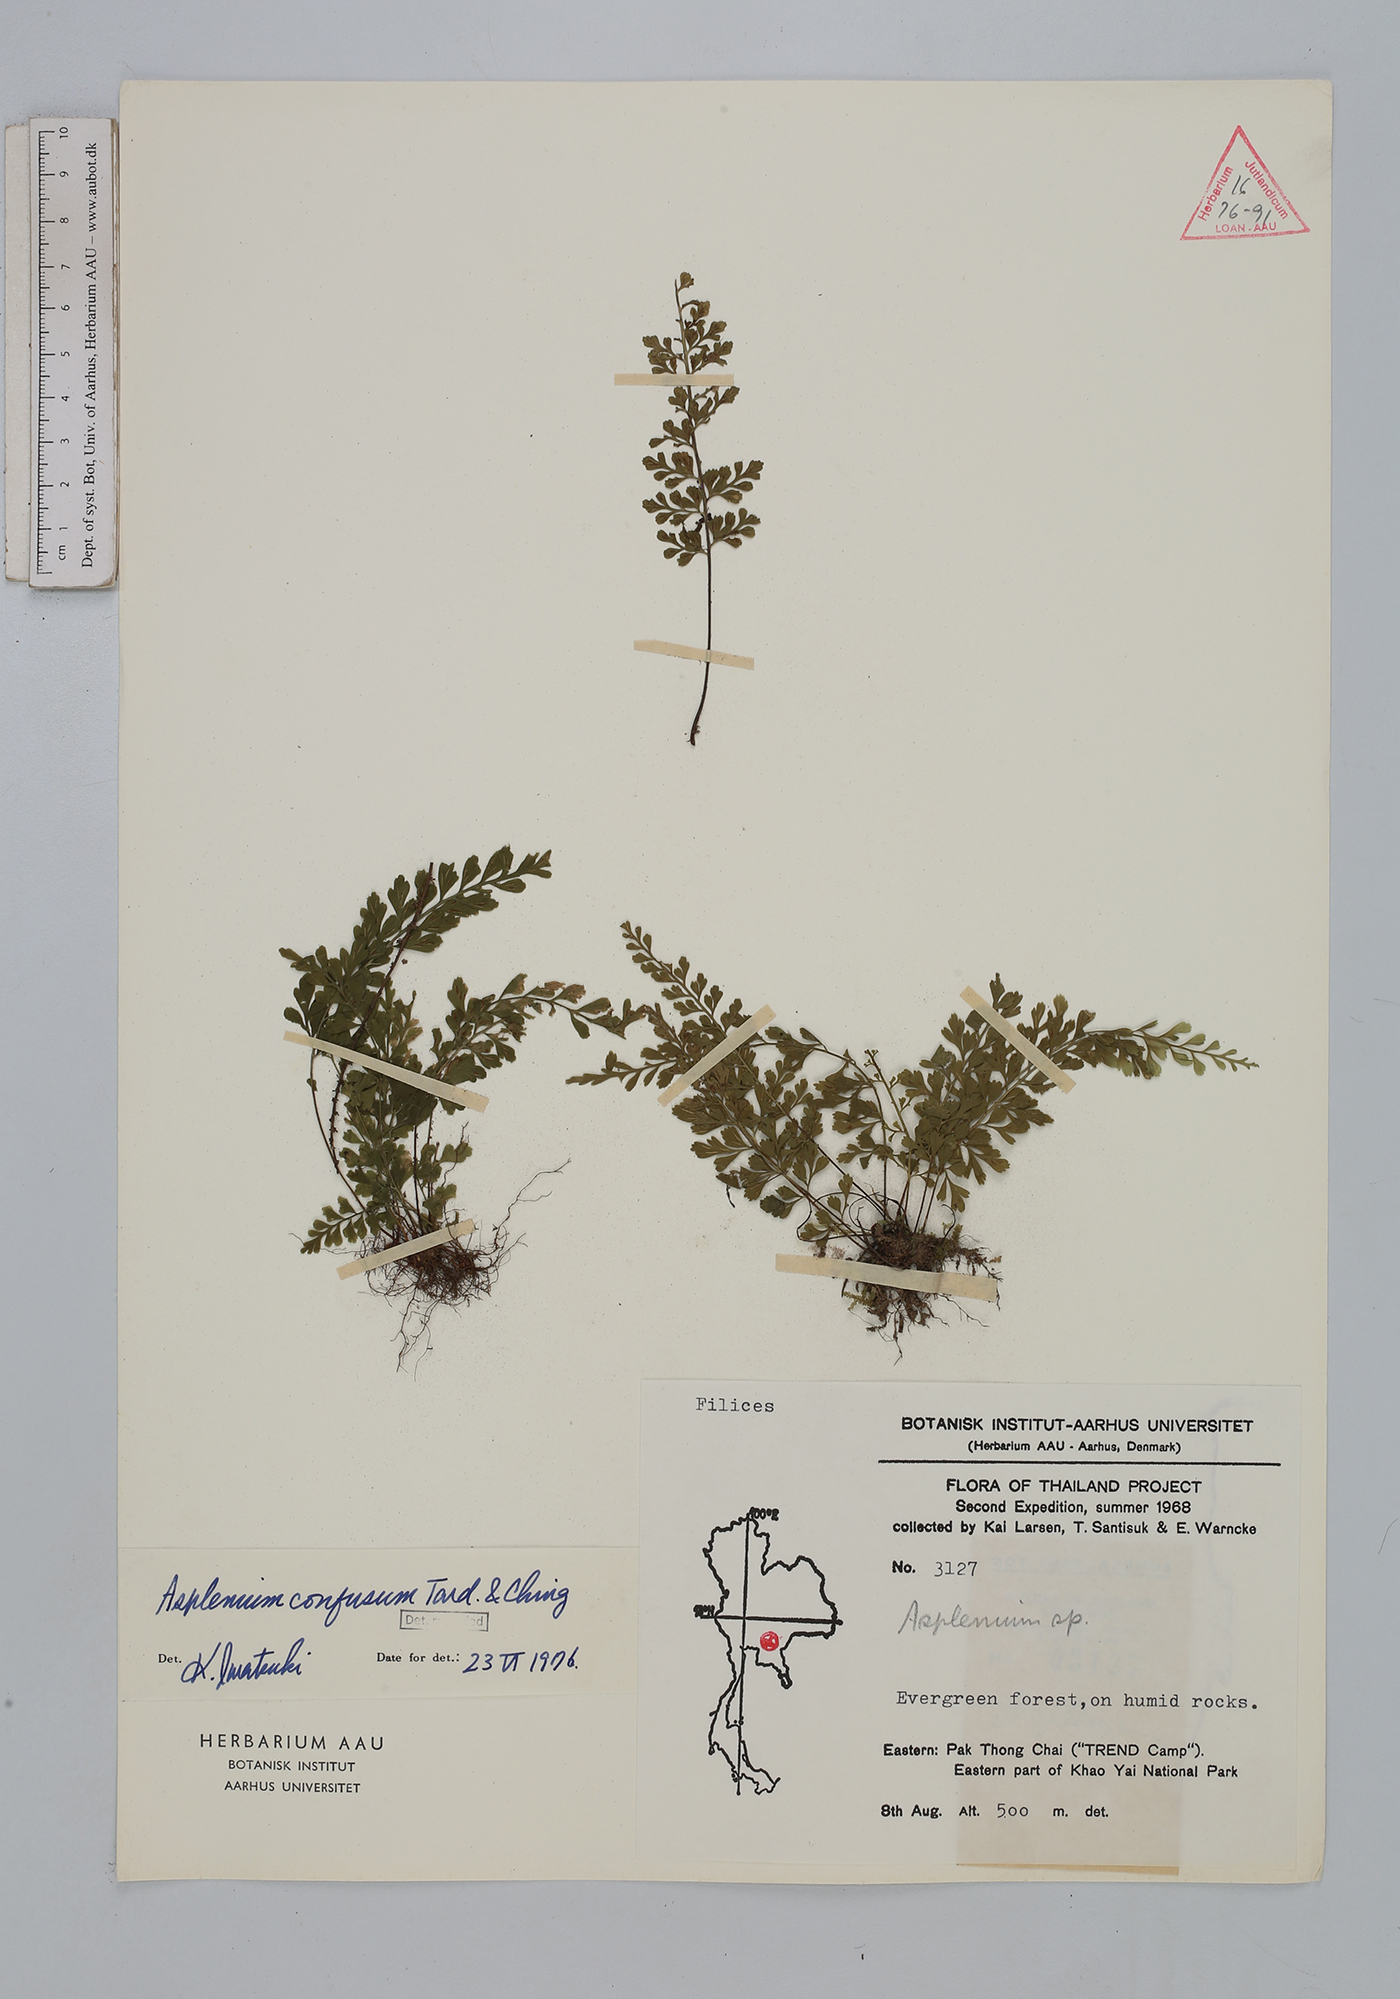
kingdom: Plantae
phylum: Tracheophyta
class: Polypodiopsida
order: Polypodiales
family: Aspleniaceae
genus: Asplenium
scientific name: Asplenium cristatum
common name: Parsley spleenwort
